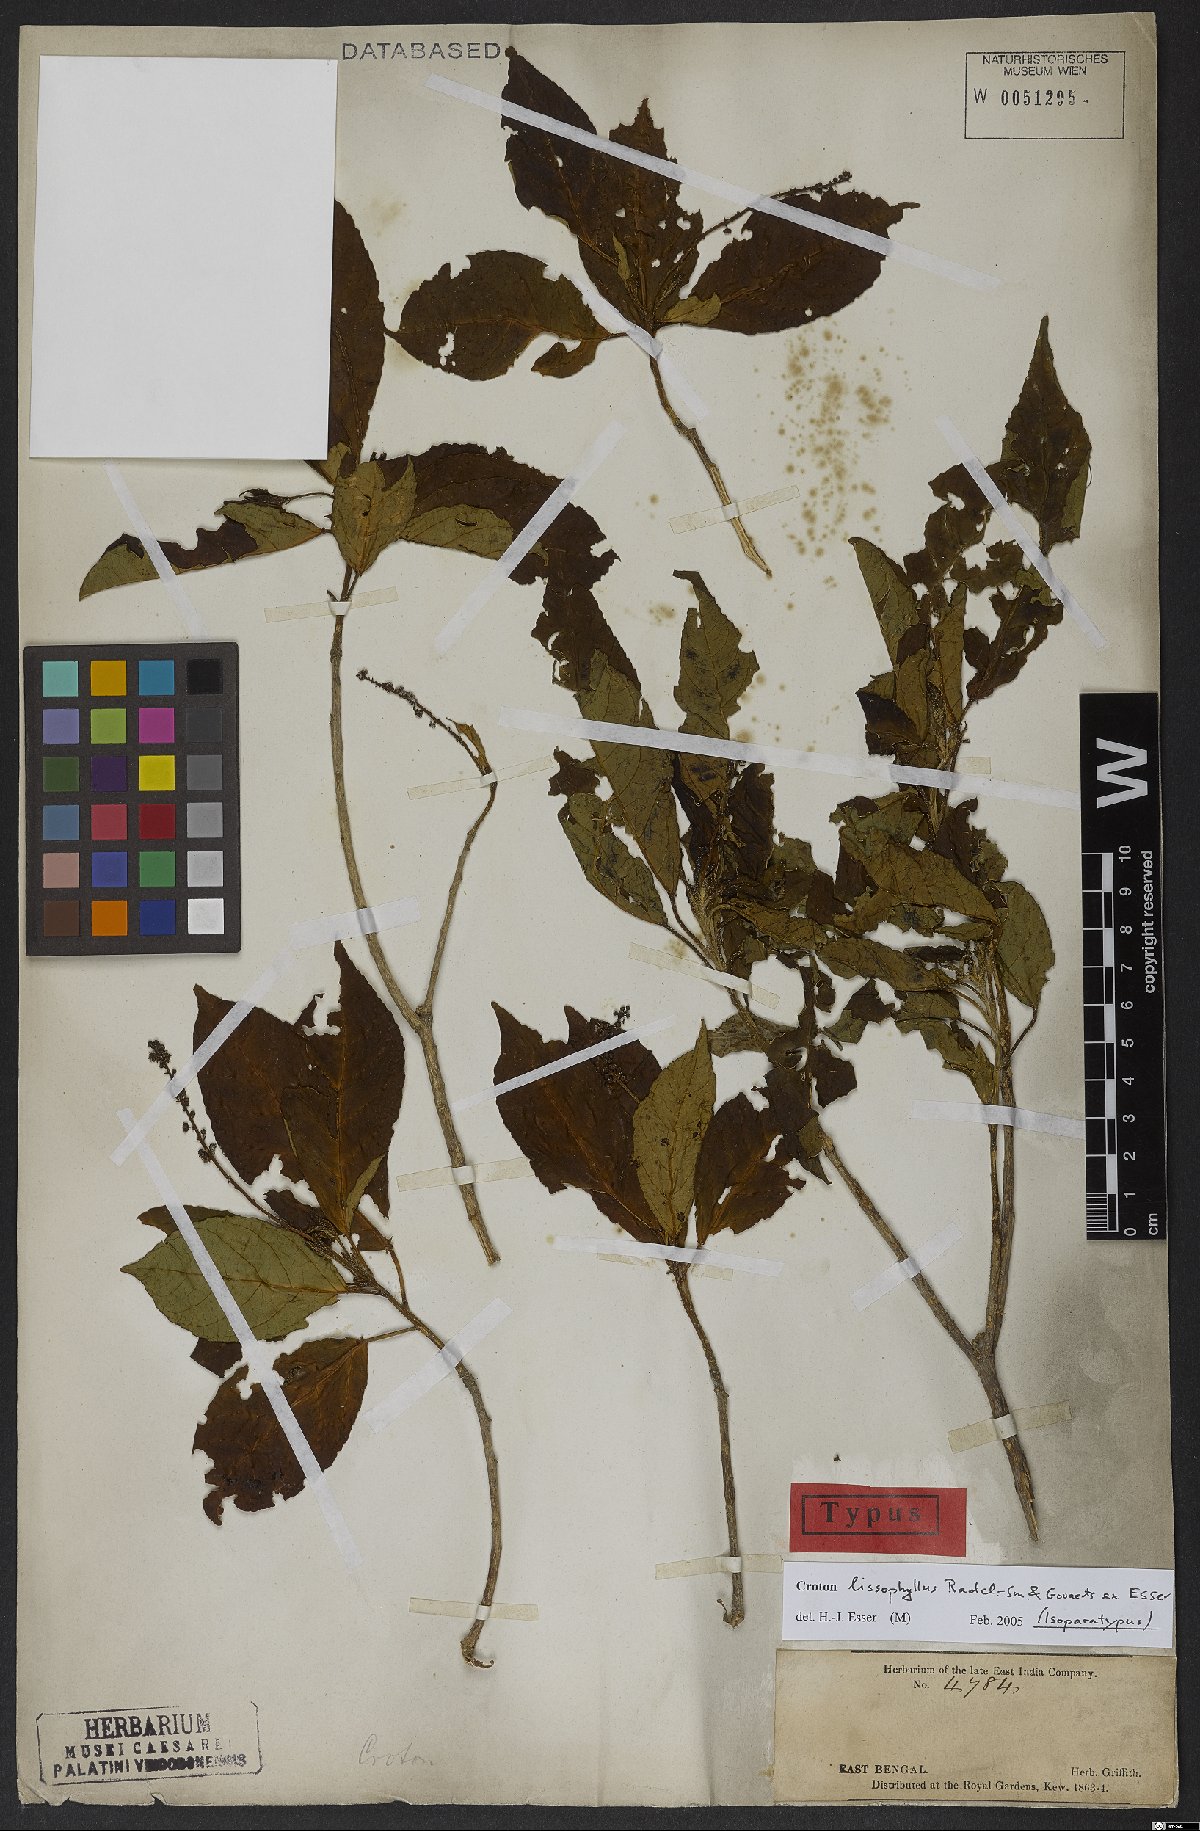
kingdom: Plantae
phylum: Tracheophyta
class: Magnoliopsida
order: Malpighiales
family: Euphorbiaceae
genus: Croton
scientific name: Croton lissophyllus
